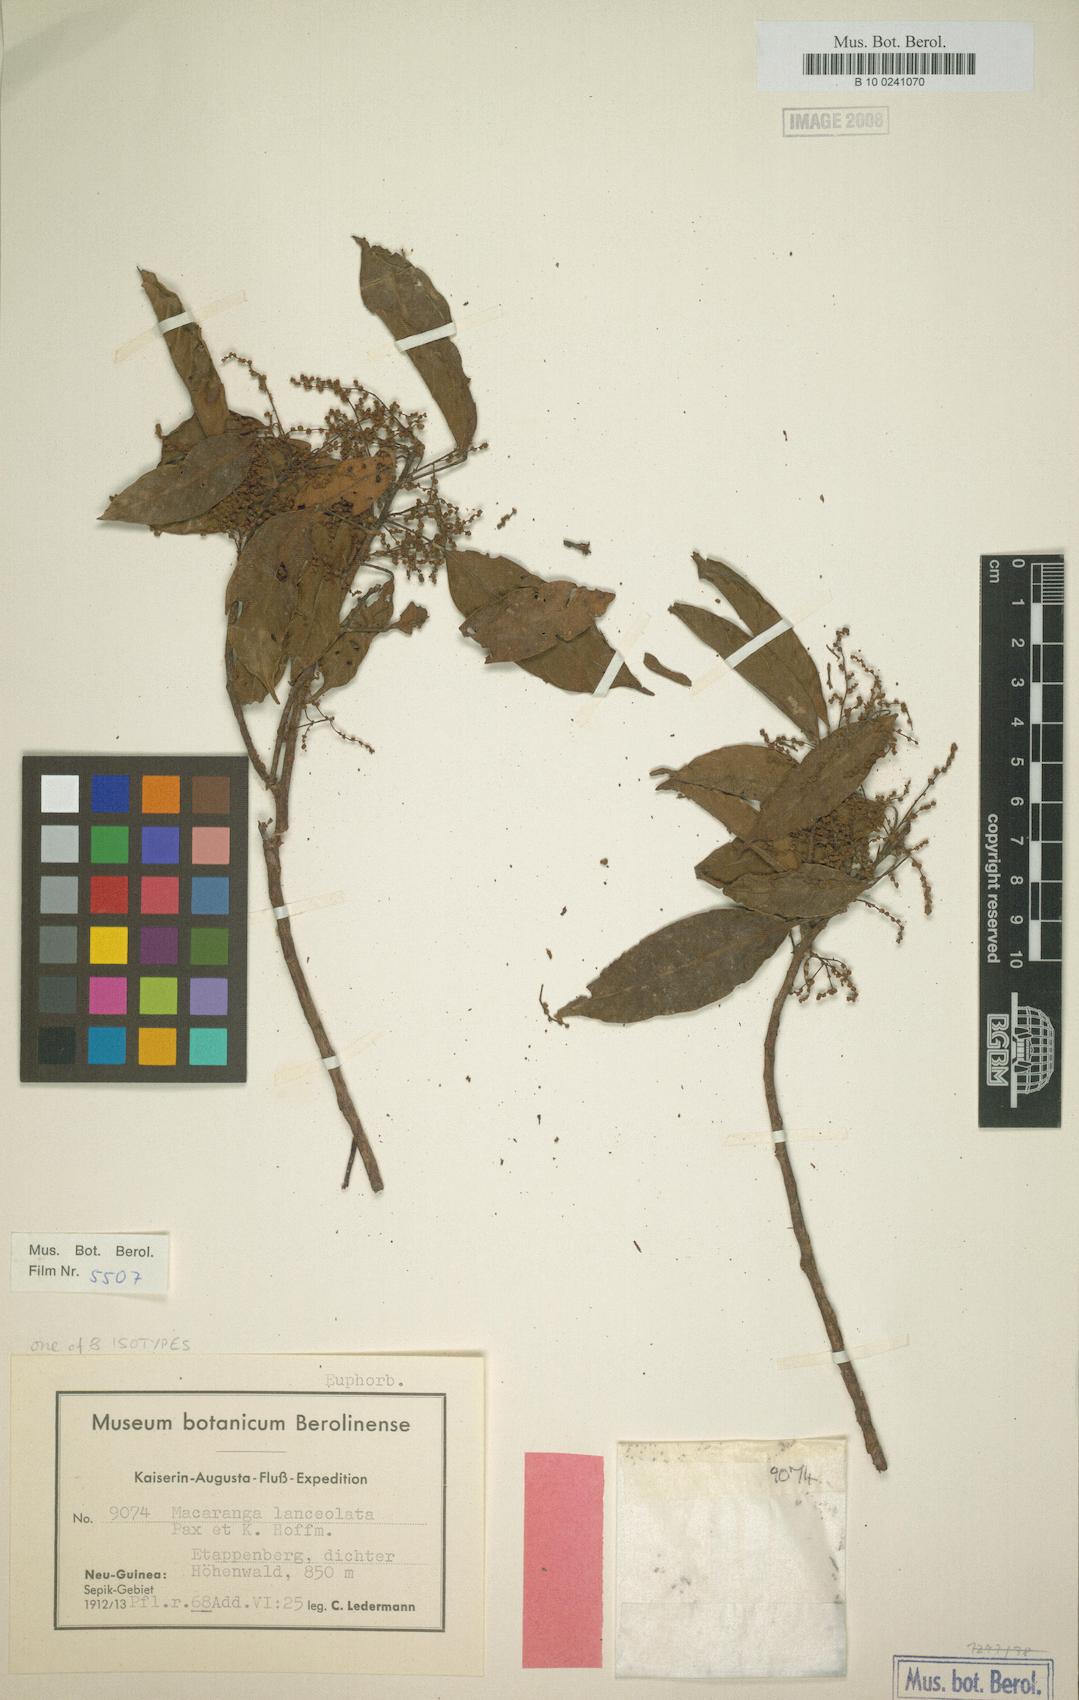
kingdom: Plantae
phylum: Tracheophyta
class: Magnoliopsida
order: Malpighiales
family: Euphorbiaceae
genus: Macaranga
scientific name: Macaranga lanceolata
